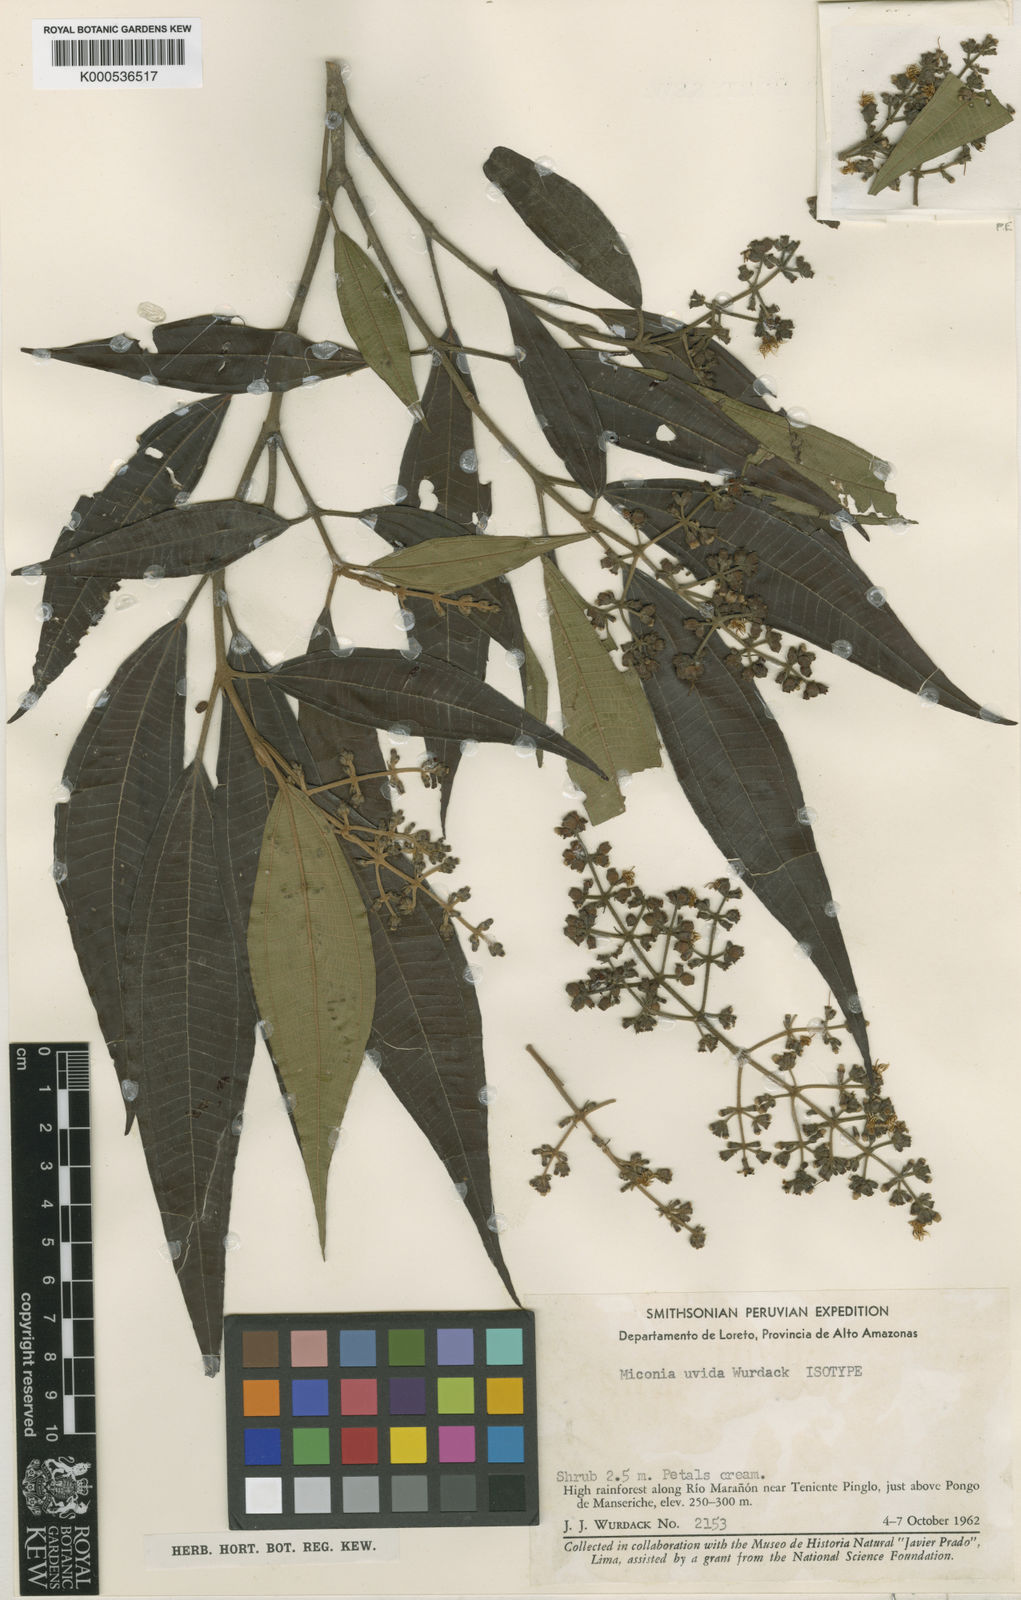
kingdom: Plantae
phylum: Tracheophyta
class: Magnoliopsida
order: Myrtales
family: Melastomataceae
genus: Miconia
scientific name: Miconia uvida
